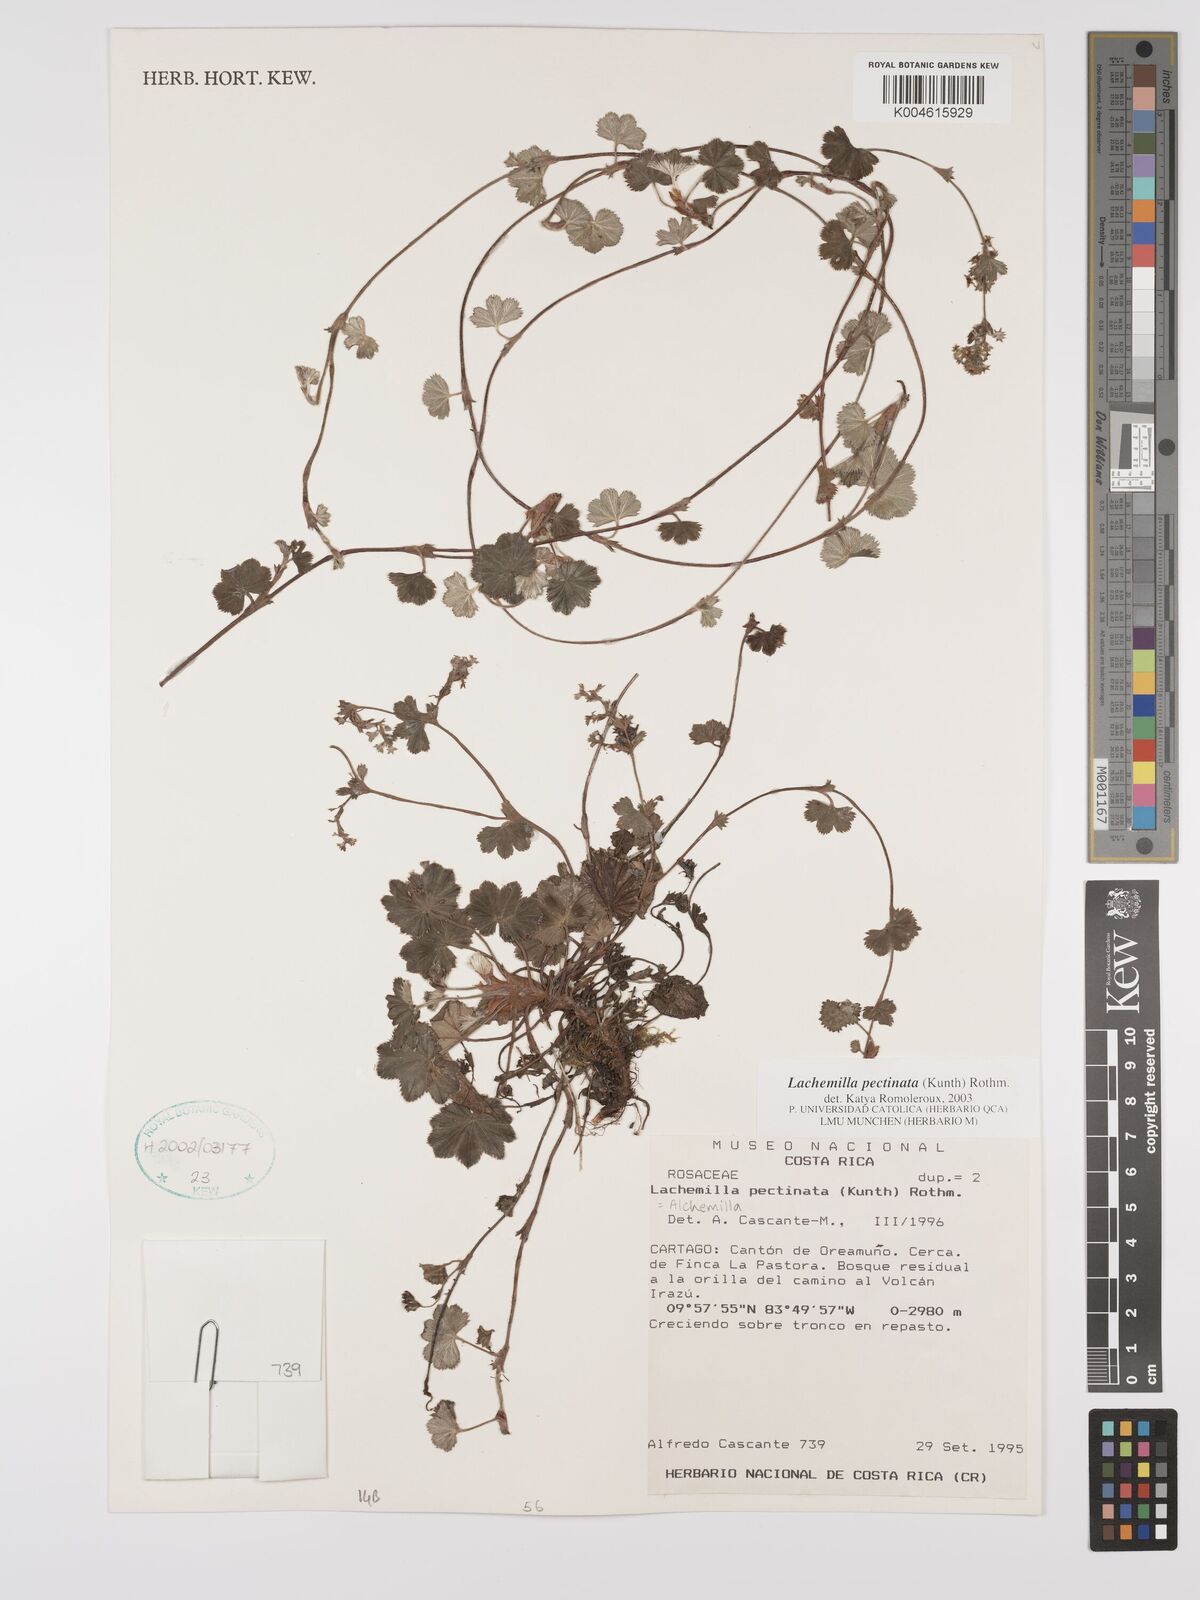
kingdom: Plantae
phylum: Tracheophyta
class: Magnoliopsida
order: Rosales
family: Rosaceae
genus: Lachemilla
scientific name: Lachemilla pectinata
